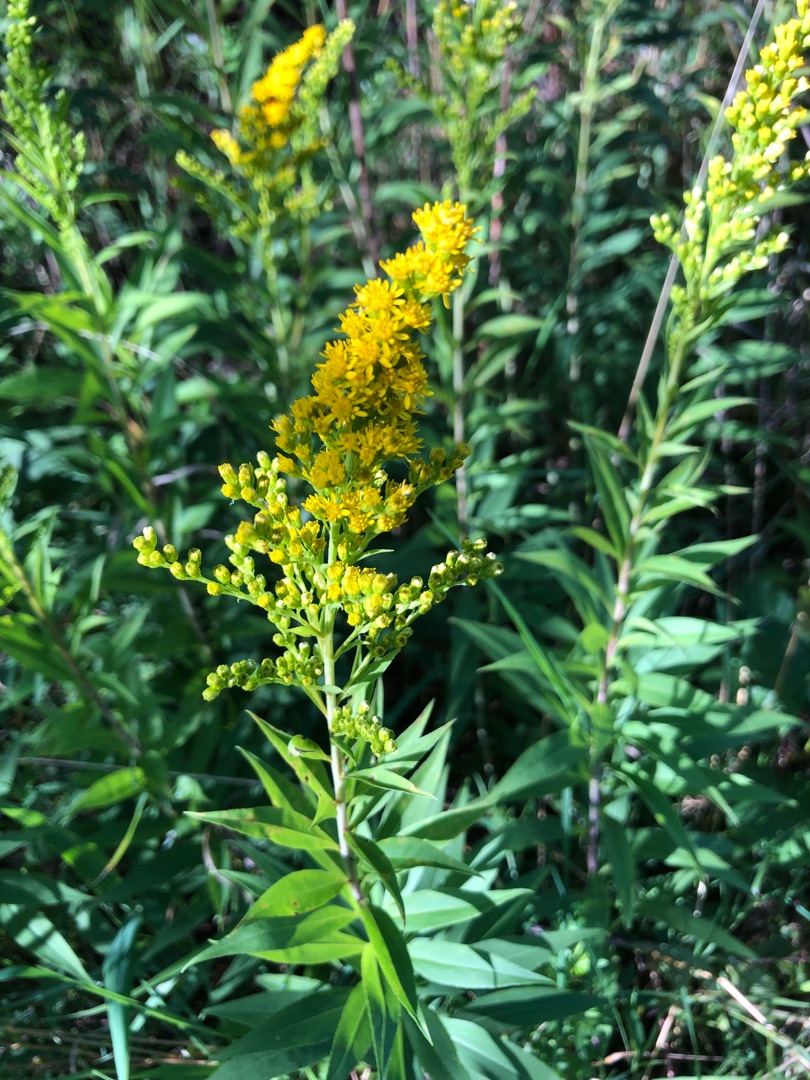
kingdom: Plantae
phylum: Tracheophyta
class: Magnoliopsida
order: Asterales
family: Asteraceae
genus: Solidago
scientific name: Solidago
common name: Sildig gyldenris × almindelig gyldenris
